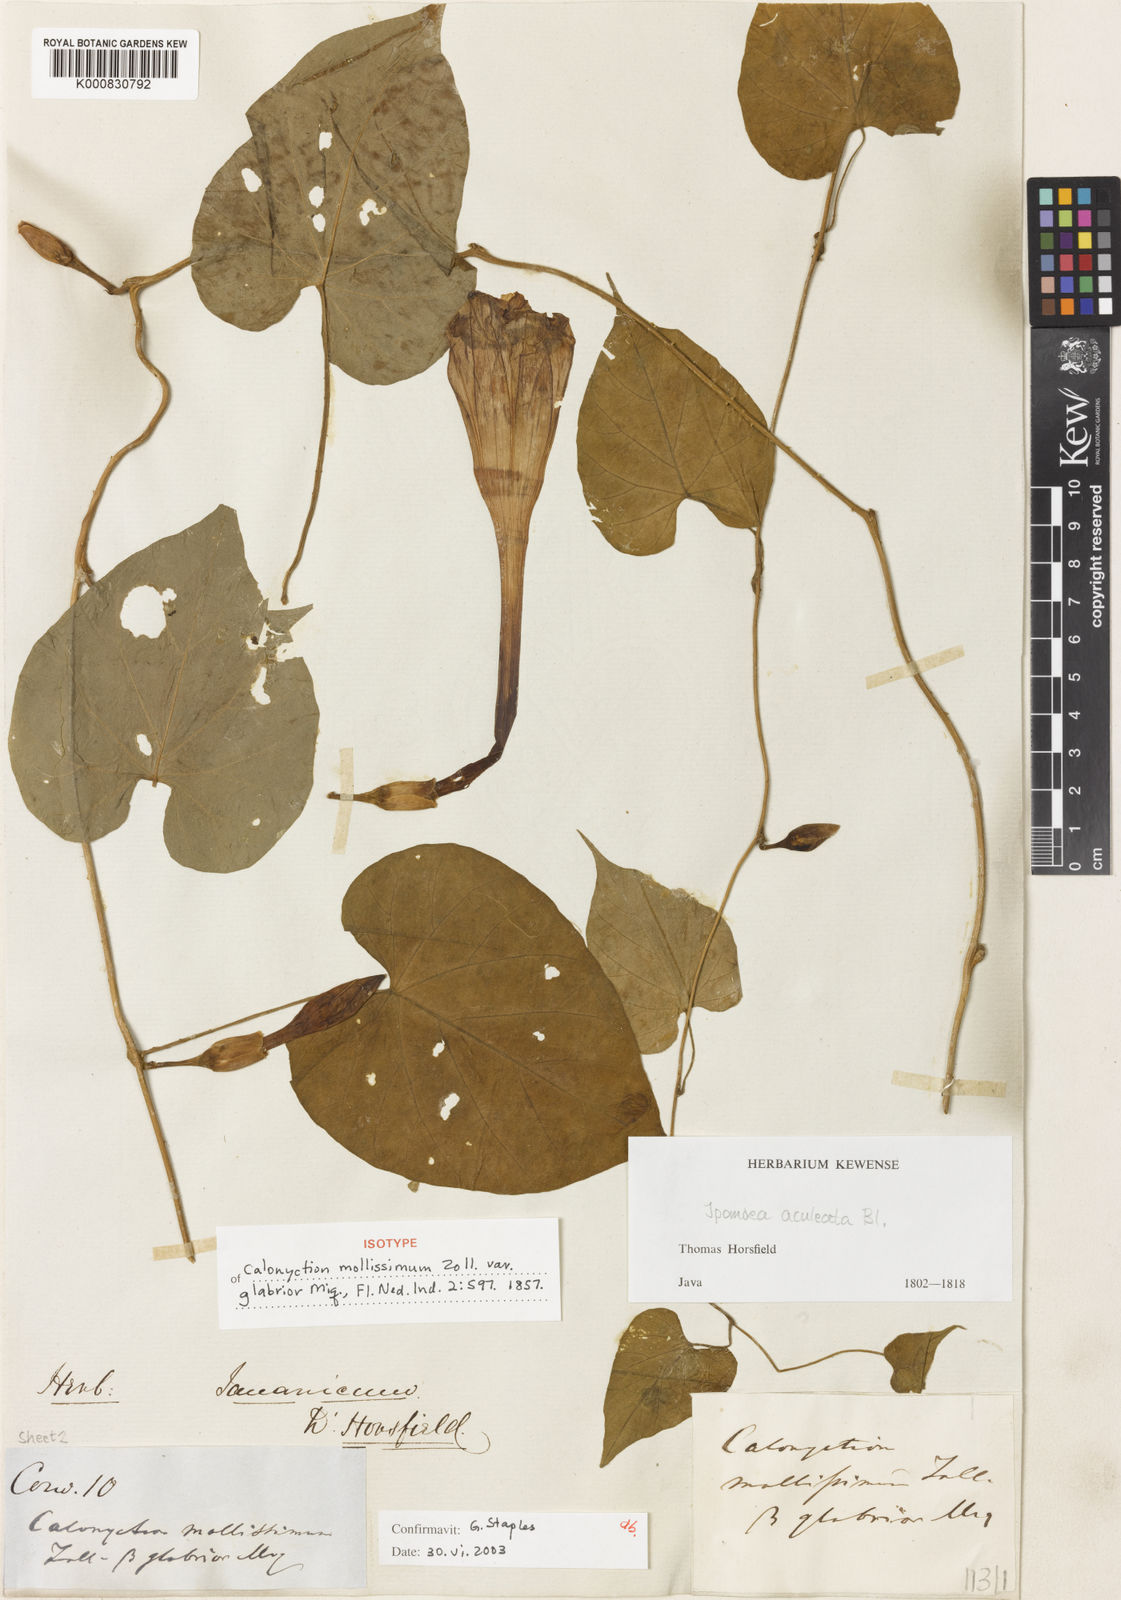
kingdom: Plantae
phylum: Tracheophyta
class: Magnoliopsida
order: Solanales
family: Convolvulaceae
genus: Ipomoea
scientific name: Ipomoea aculeata
